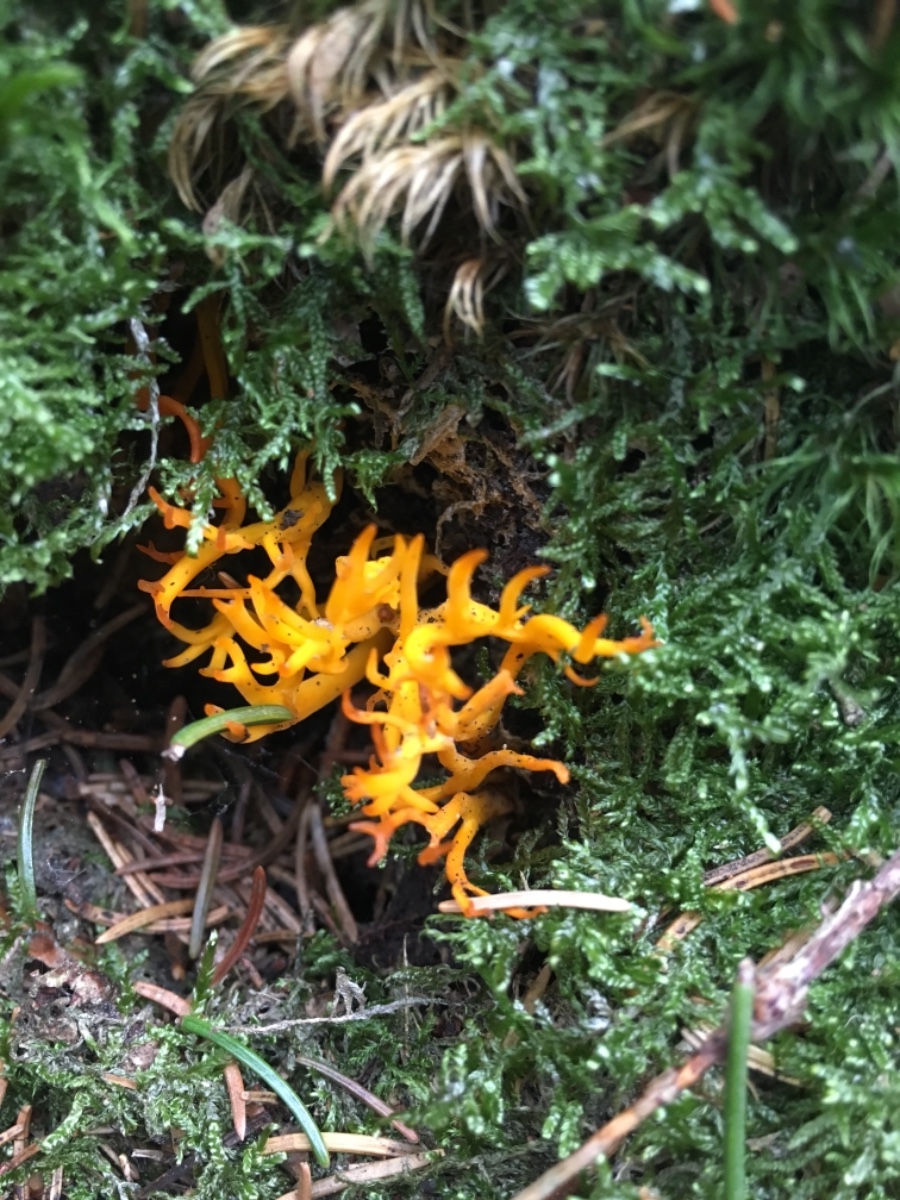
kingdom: Fungi
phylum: Basidiomycota
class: Dacrymycetes
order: Dacrymycetales
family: Dacrymycetaceae
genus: Calocera
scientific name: Calocera viscosa
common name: almindelig guldgaffel
